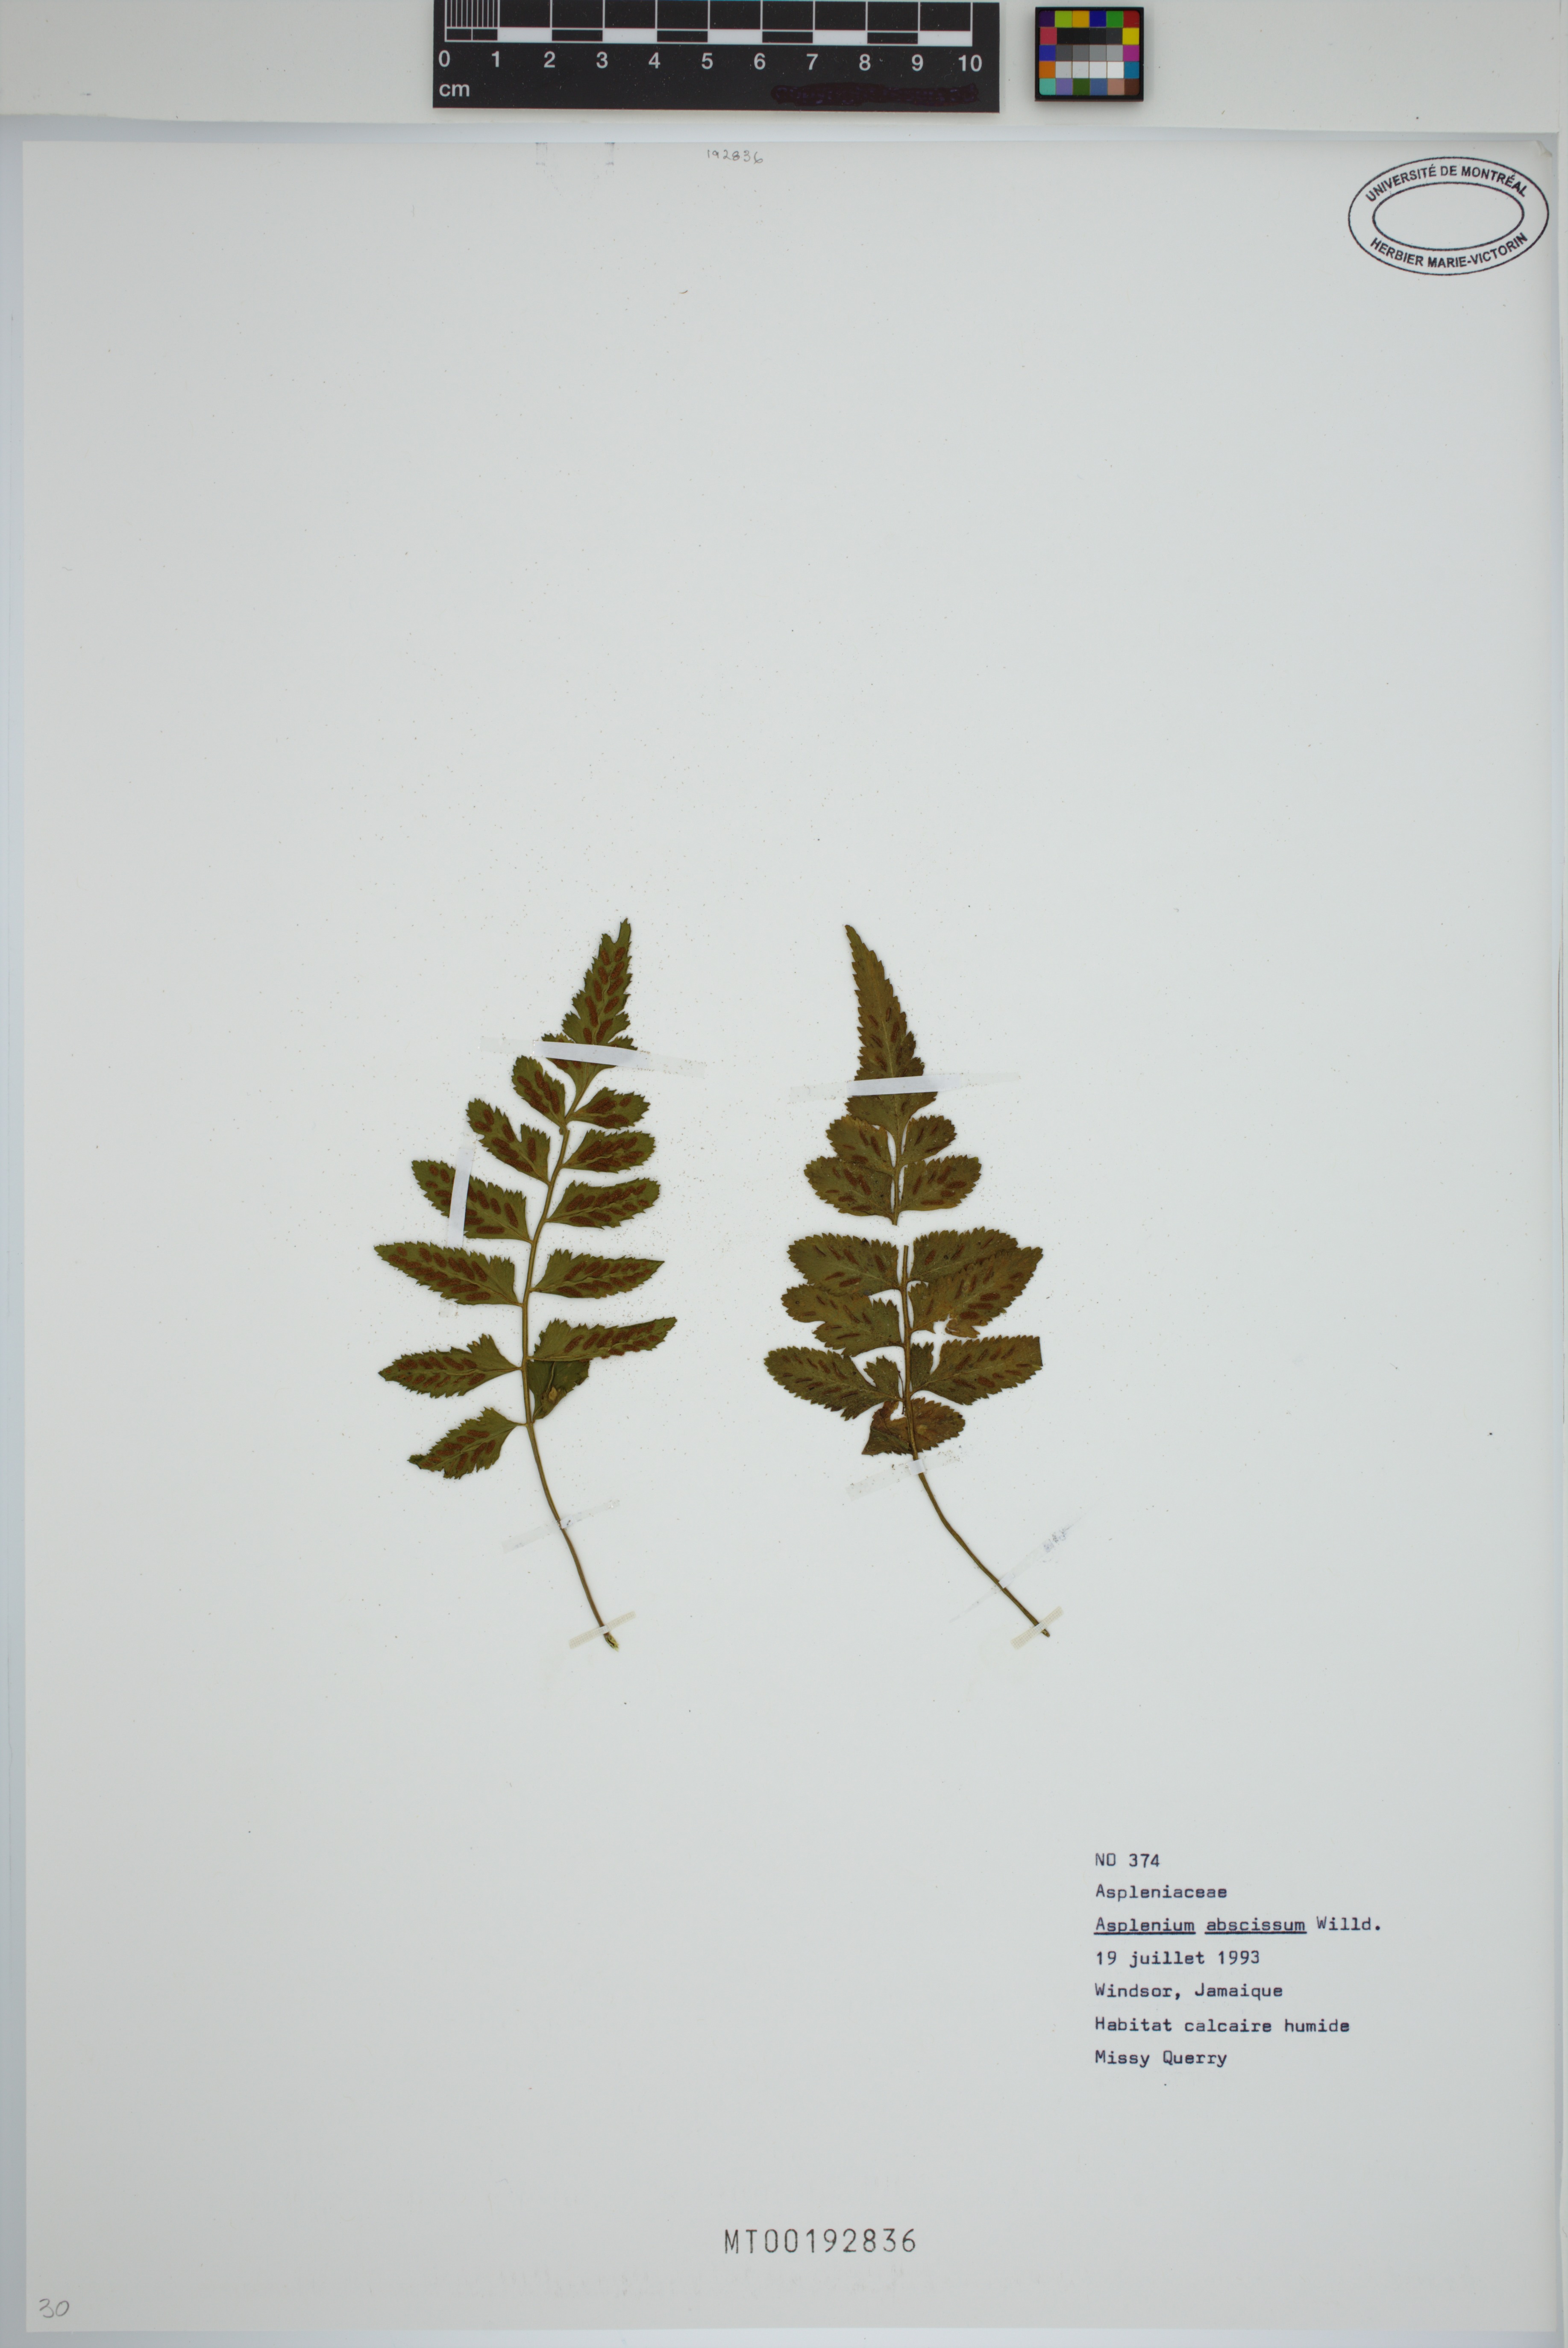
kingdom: Plantae
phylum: Tracheophyta
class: Polypodiopsida
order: Polypodiales
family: Aspleniaceae
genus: Asplenium
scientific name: Asplenium abscissum
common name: Cutleaf spleenwort
